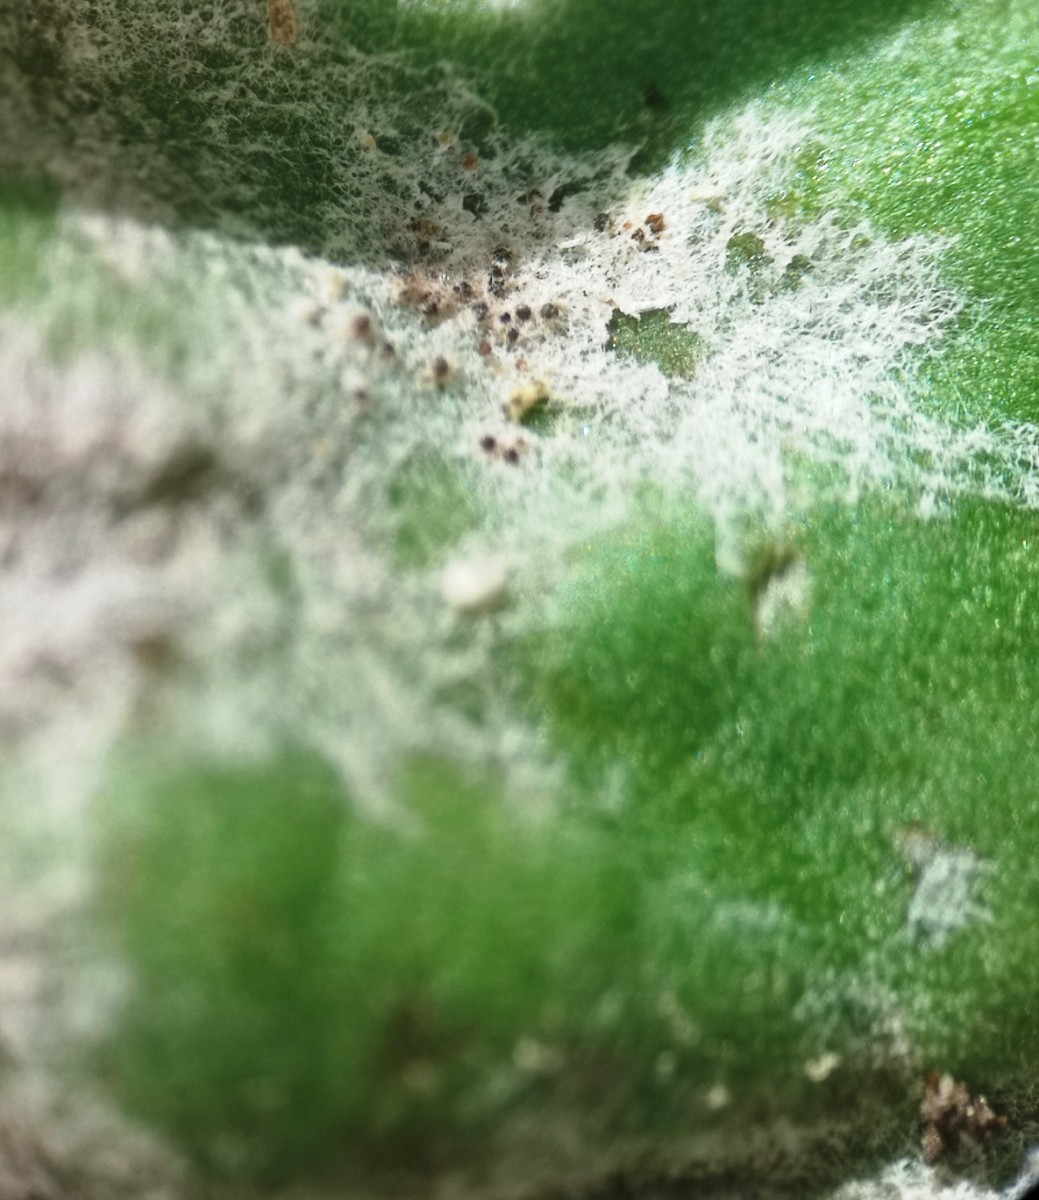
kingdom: Fungi
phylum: Ascomycota
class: Leotiomycetes
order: Helotiales
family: Erysiphaceae
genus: Golovinomyces
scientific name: Golovinomyces sordidus
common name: Plantain mildew
